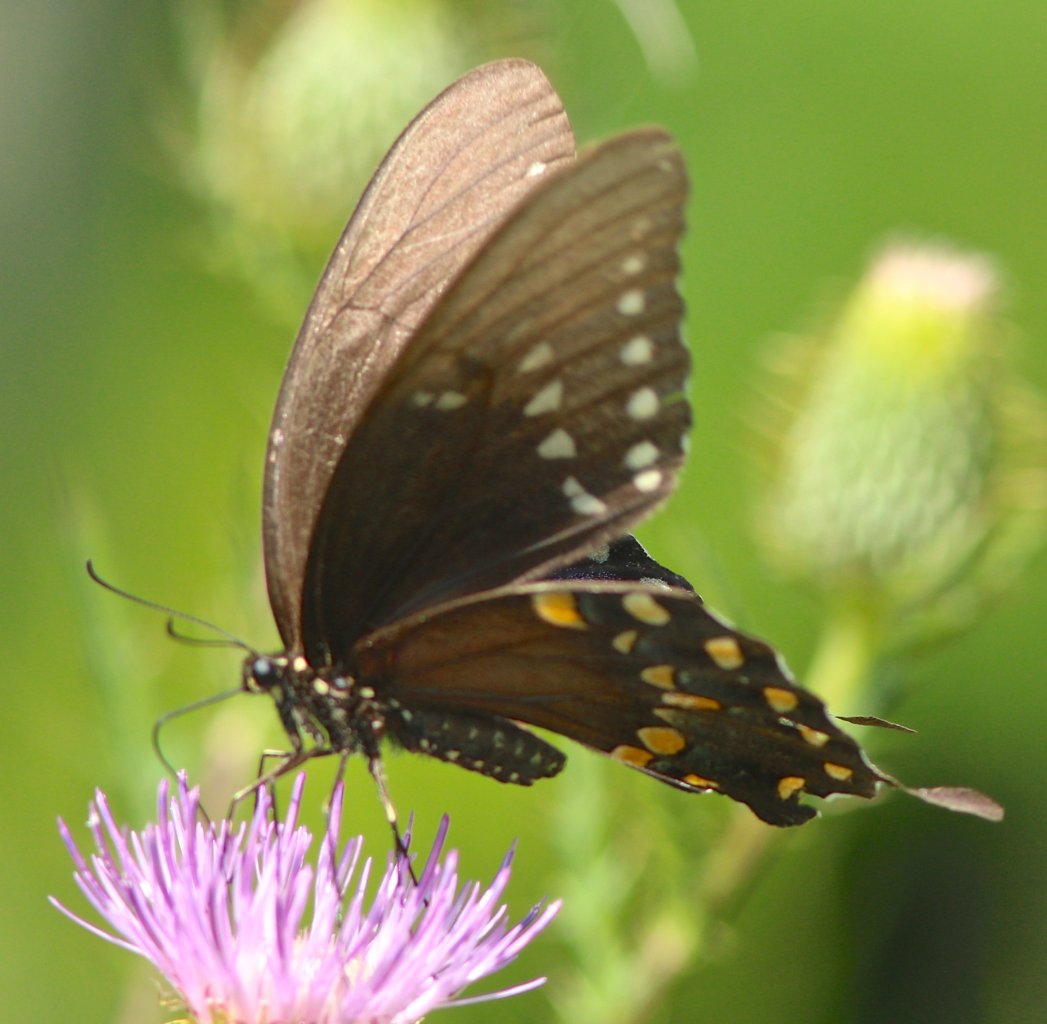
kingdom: Animalia
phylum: Arthropoda
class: Insecta
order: Lepidoptera
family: Papilionidae
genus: Pterourus
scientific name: Pterourus troilus
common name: Spicebush Swallowtail
